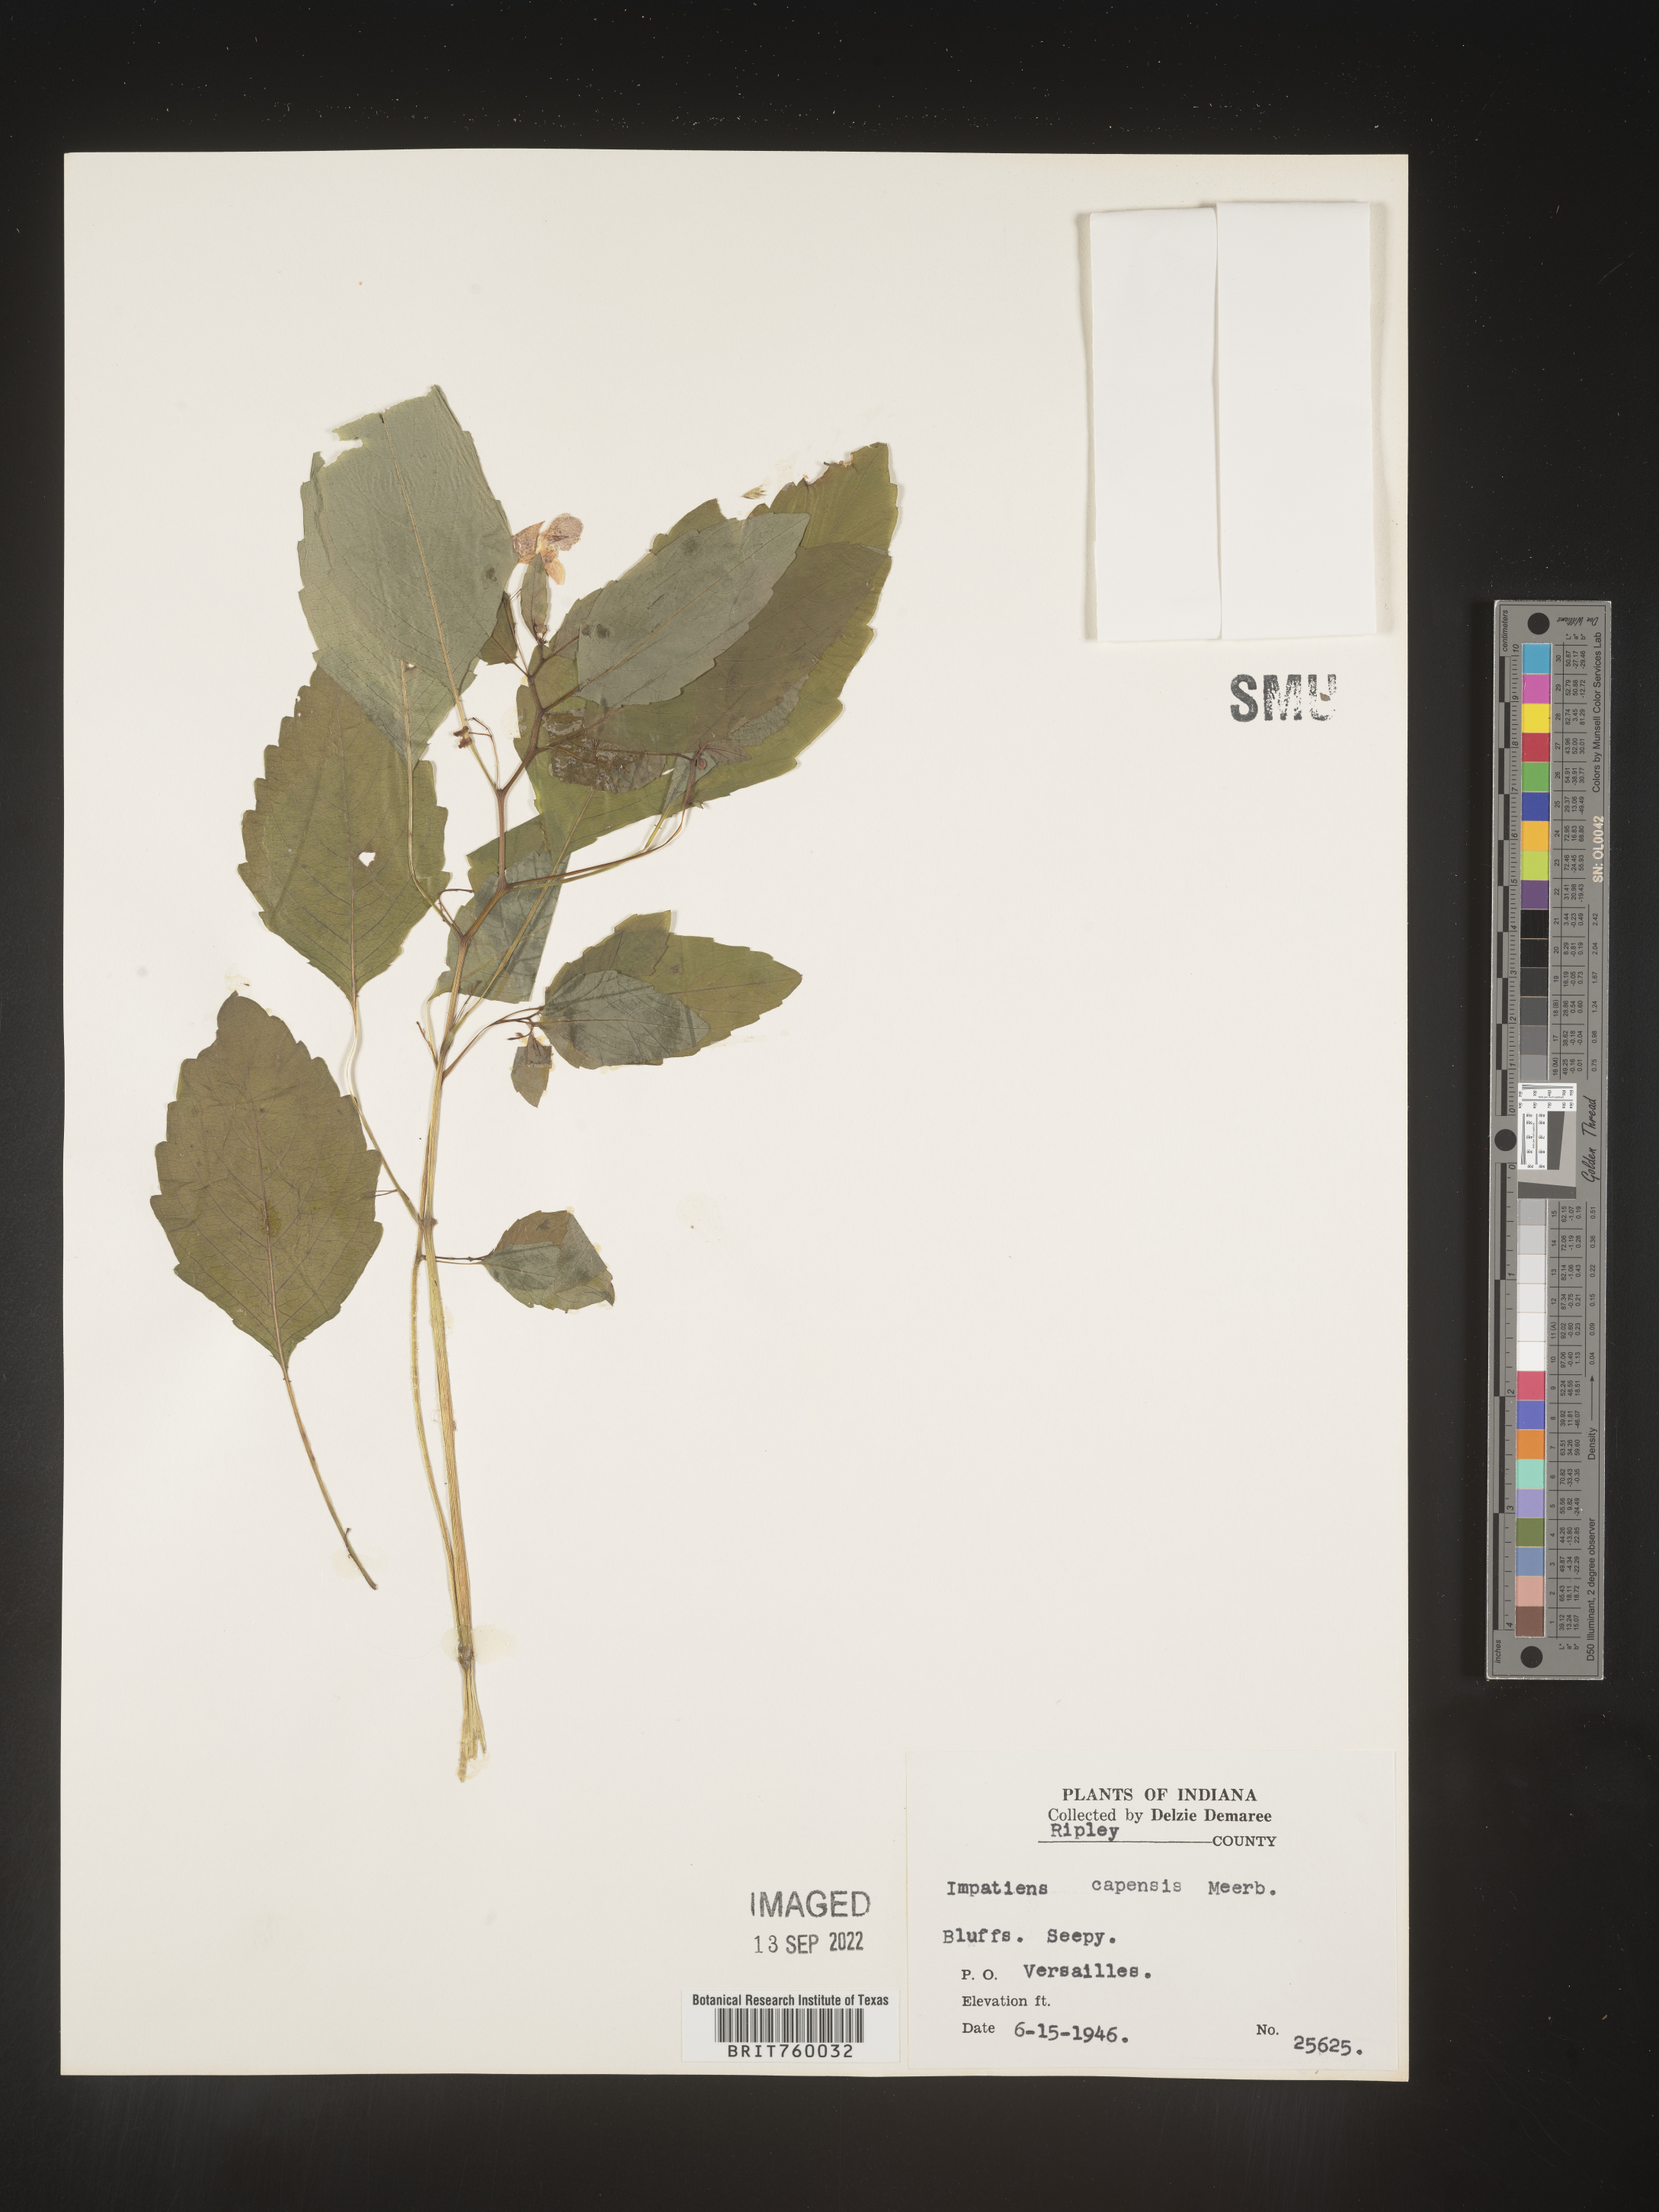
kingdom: Plantae
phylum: Tracheophyta
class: Magnoliopsida
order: Ericales
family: Balsaminaceae
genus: Impatiens
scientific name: Impatiens capensis
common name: Orange balsam
